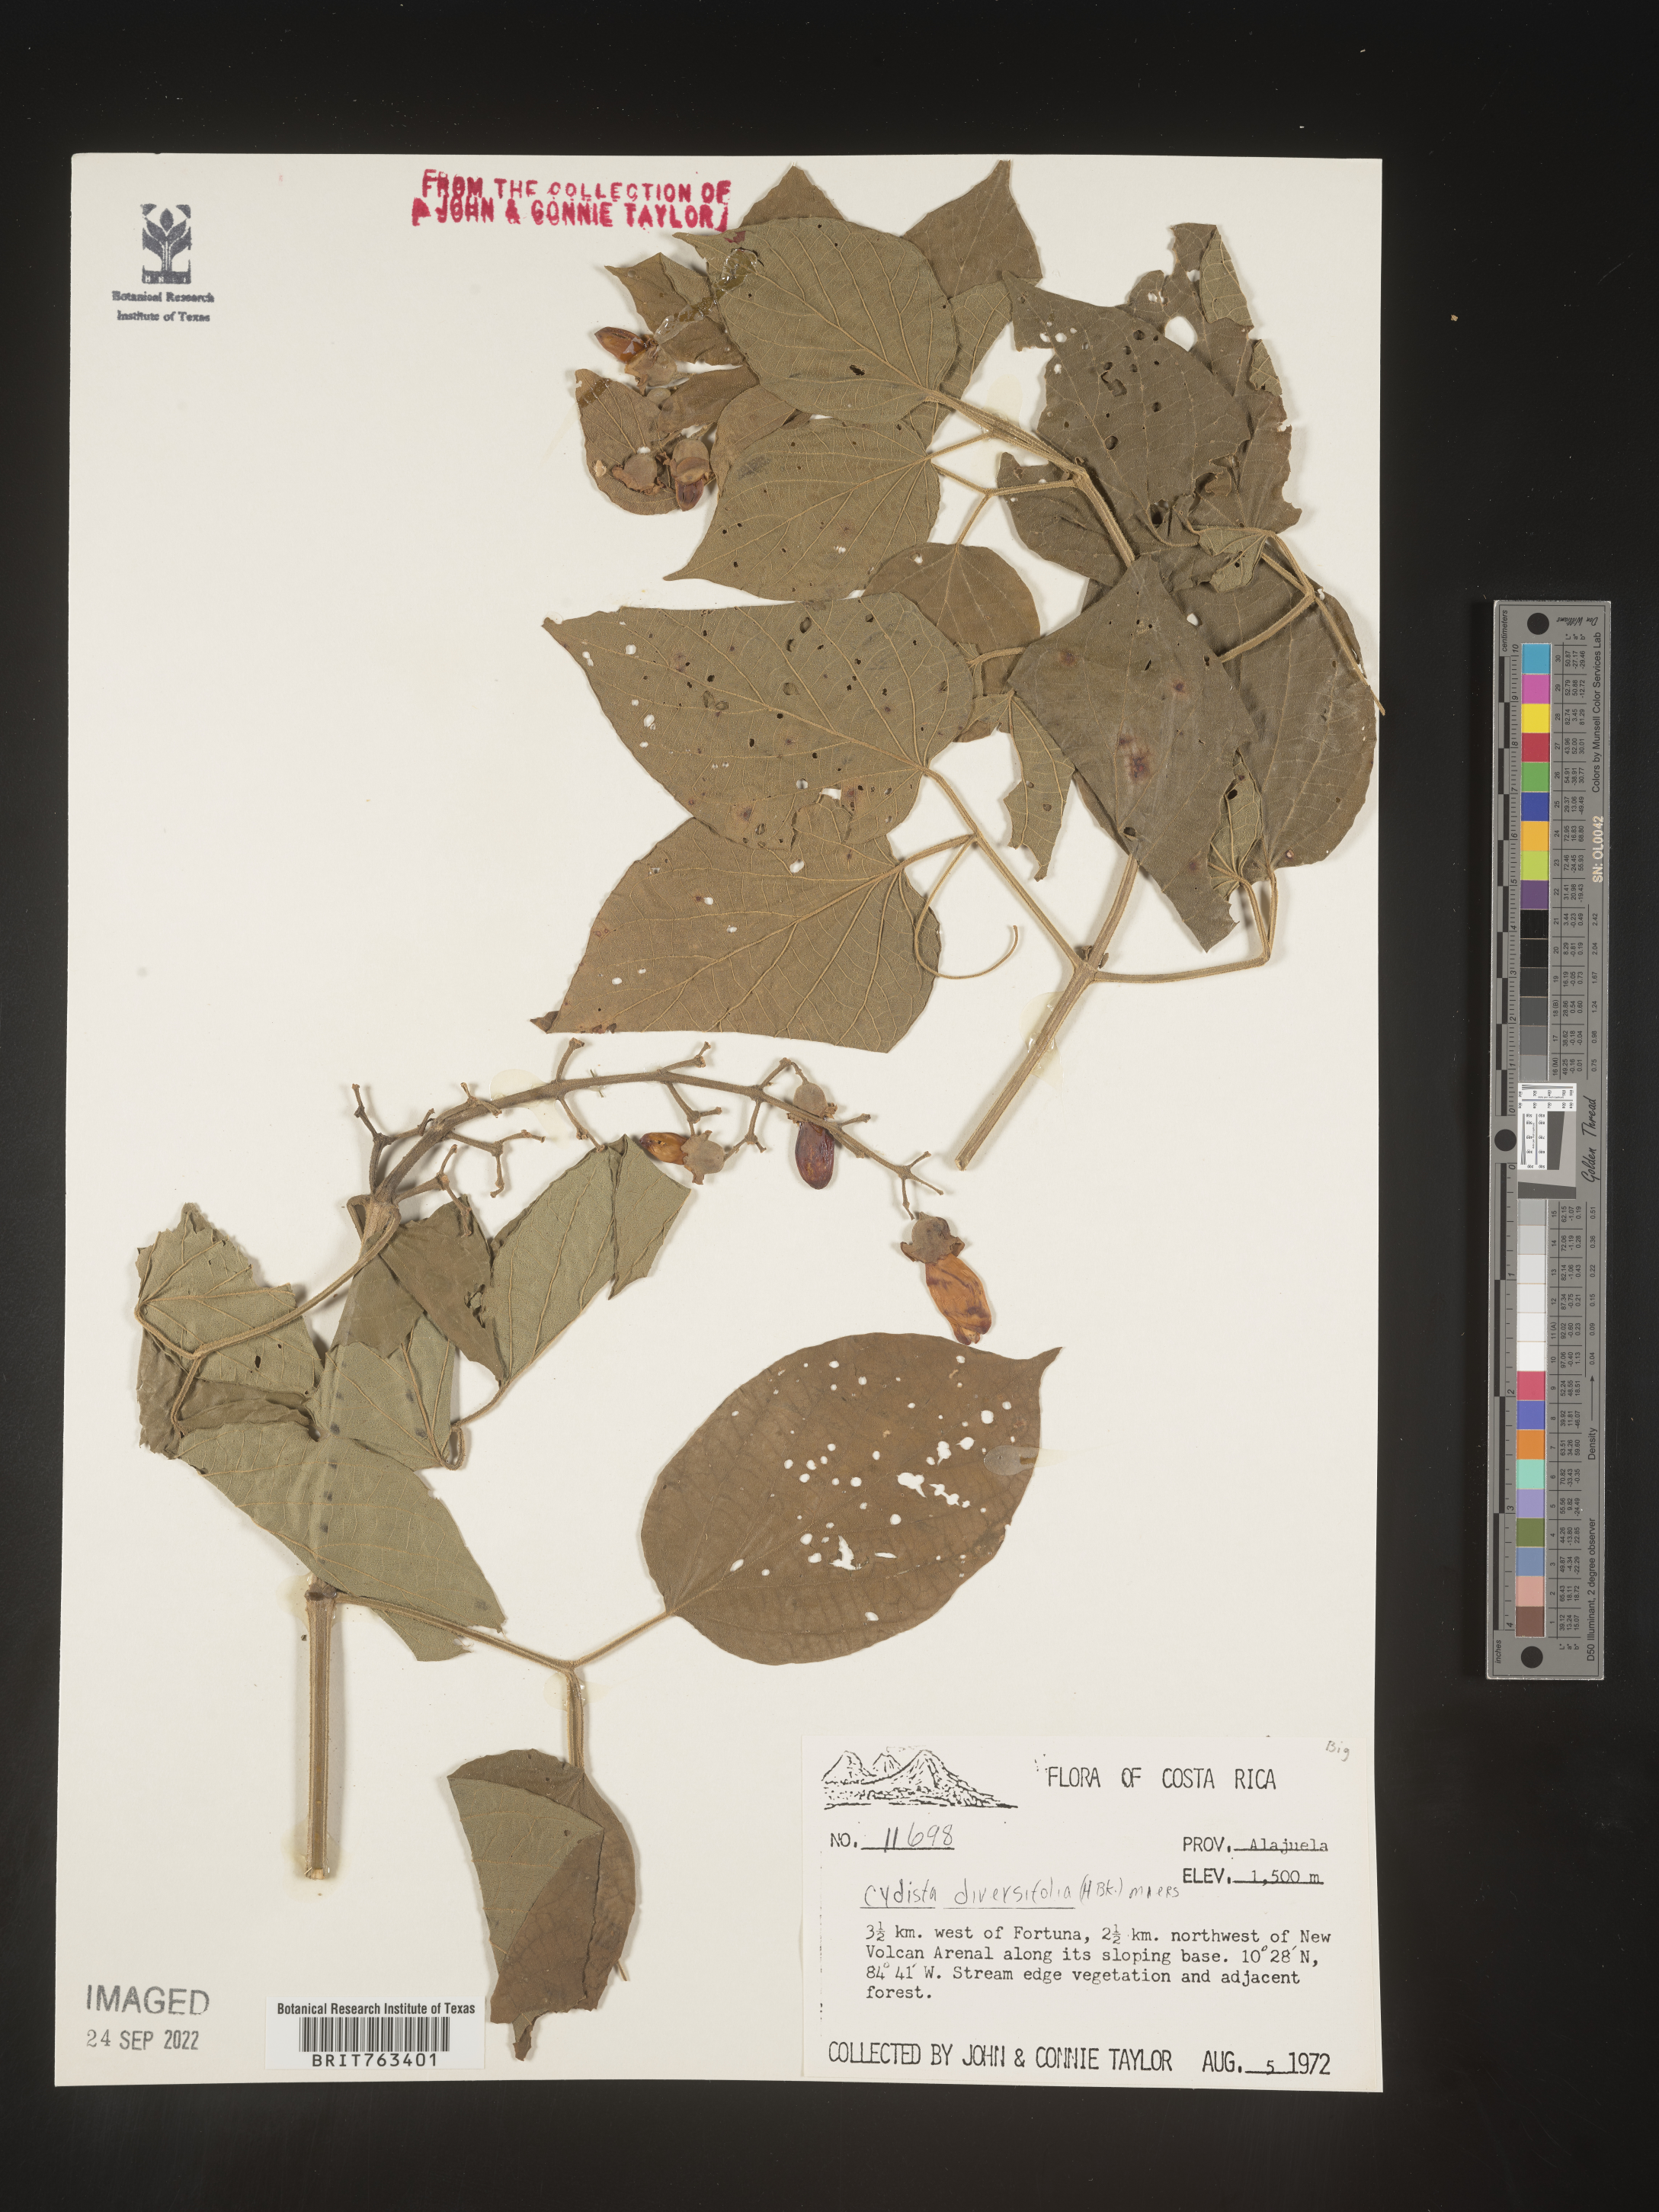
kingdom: Plantae
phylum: Tracheophyta
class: Magnoliopsida
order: Lamiales
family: Bignoniaceae
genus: Bignonia
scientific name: Bignonia
